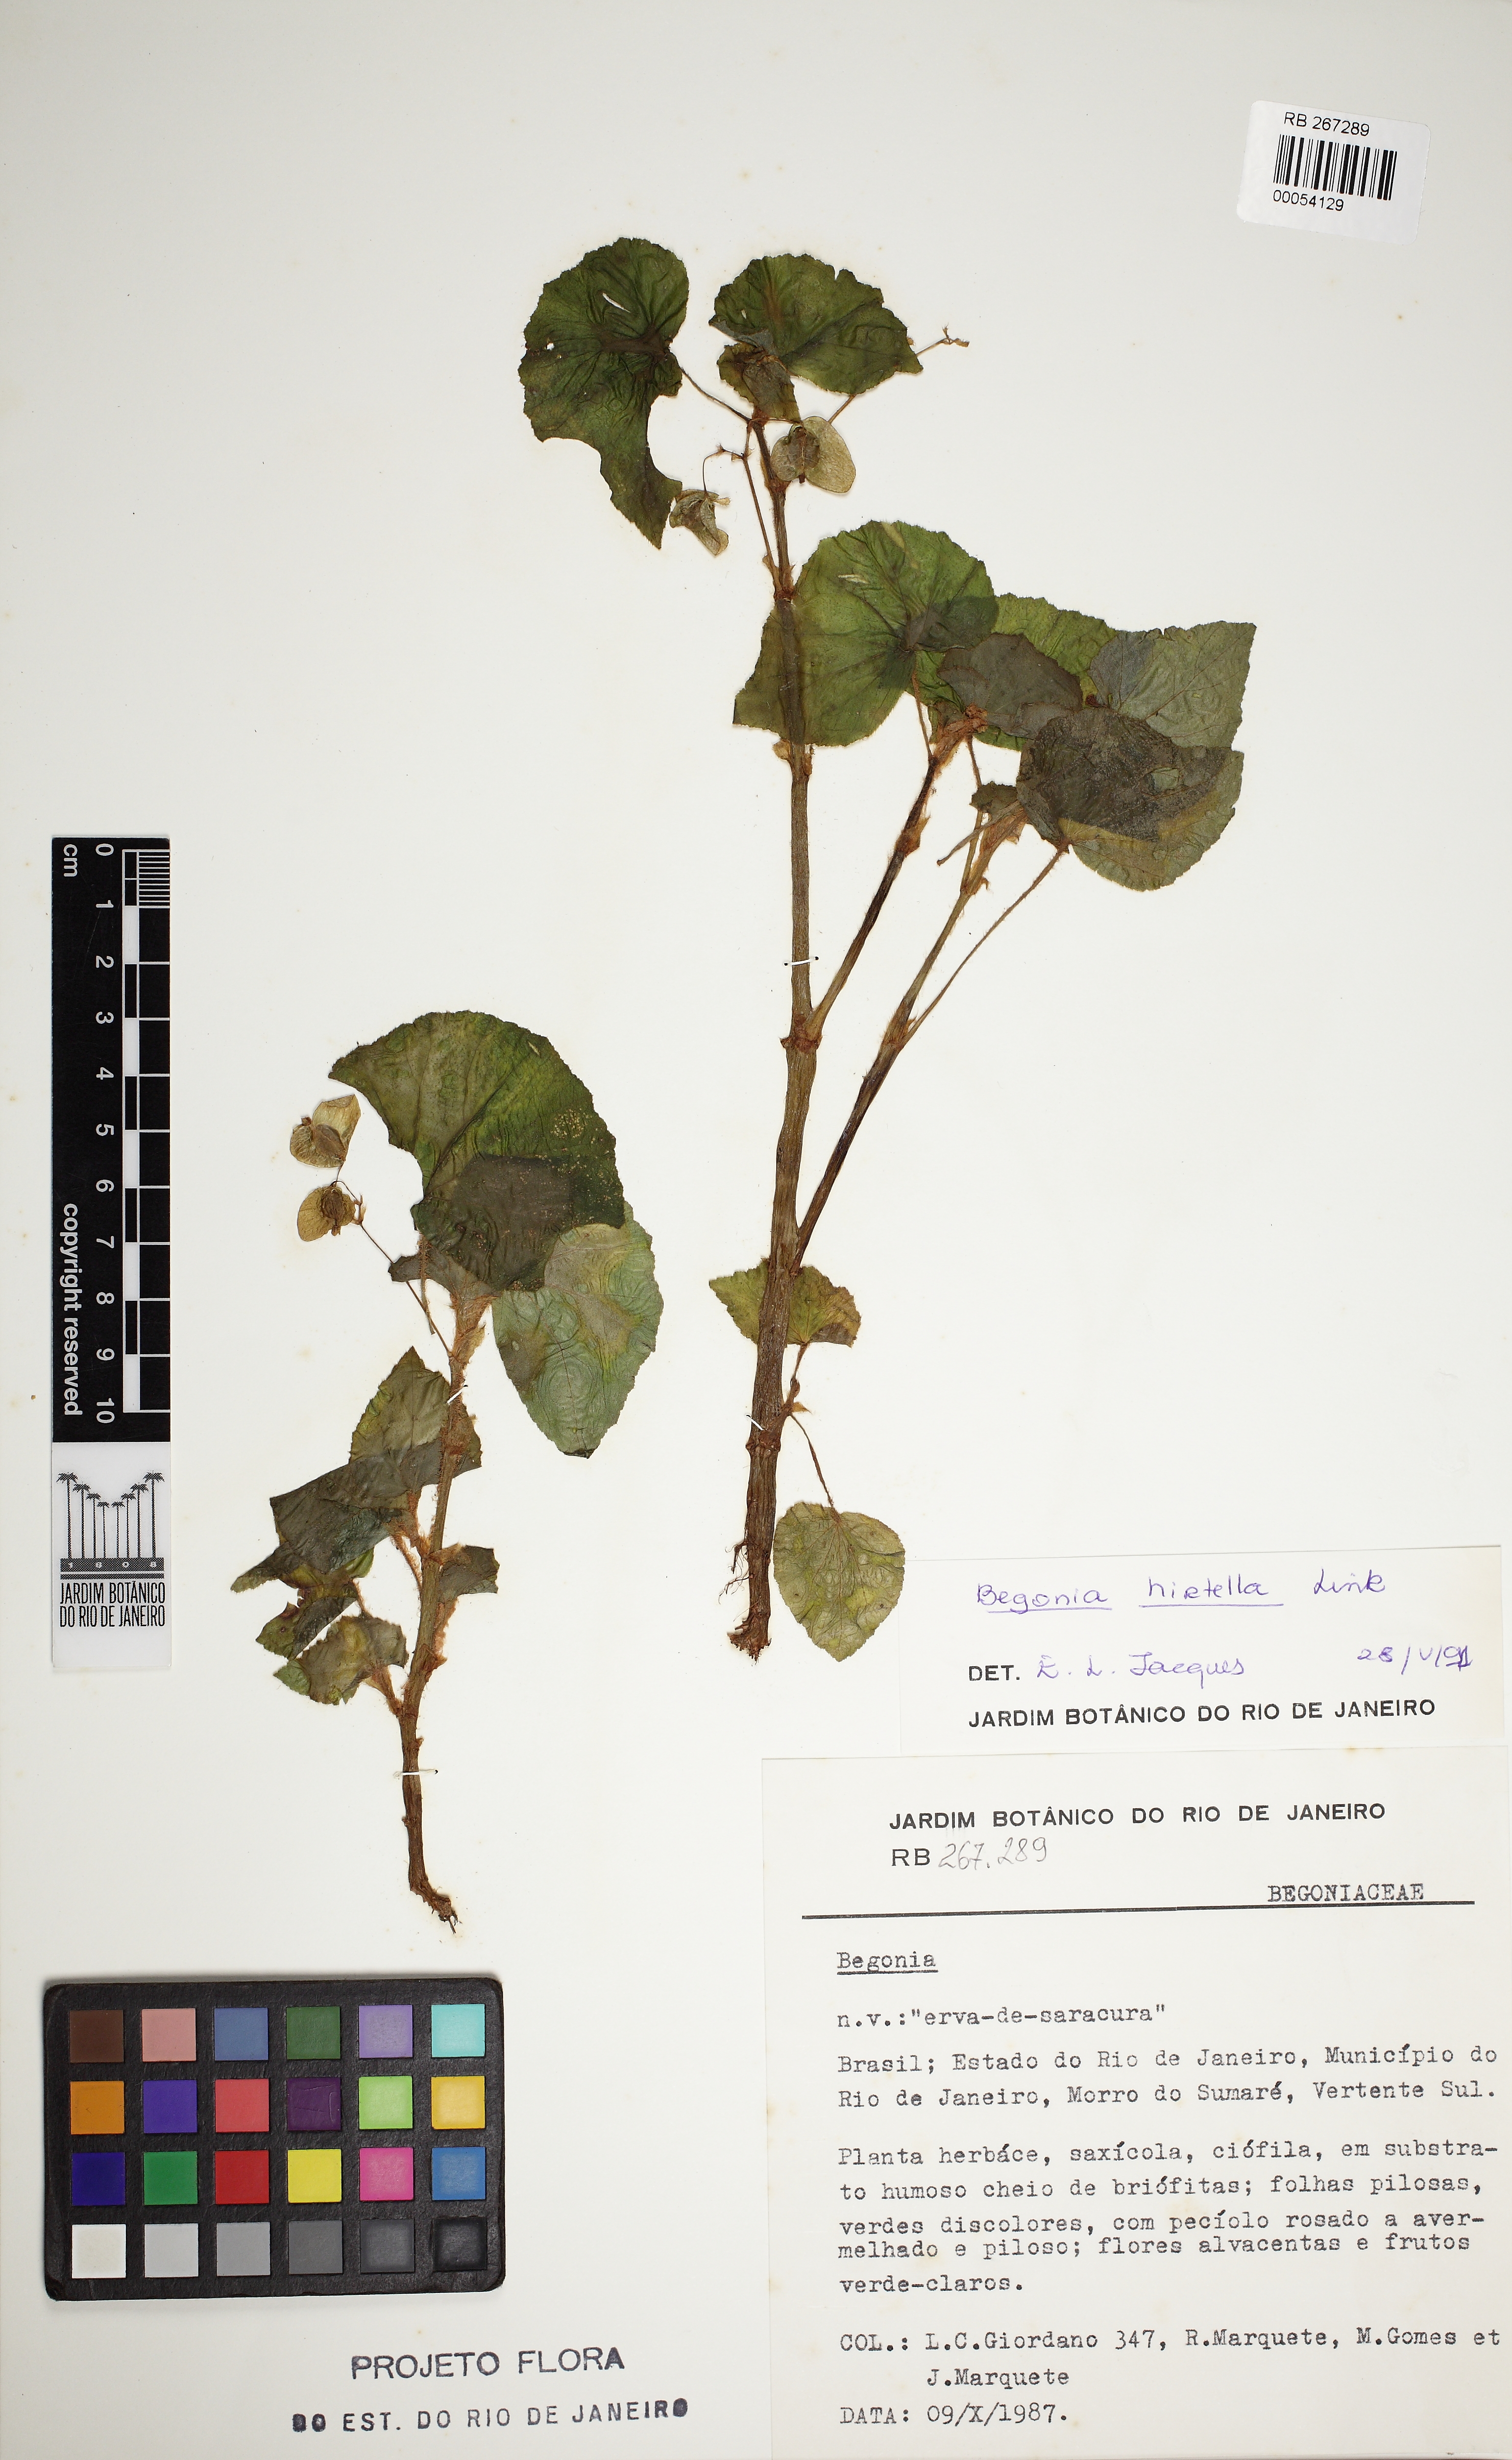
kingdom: Plantae
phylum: Tracheophyta
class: Magnoliopsida
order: Cucurbitales
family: Begoniaceae
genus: Begonia
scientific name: Begonia hirtella
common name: Brazilian begonia
